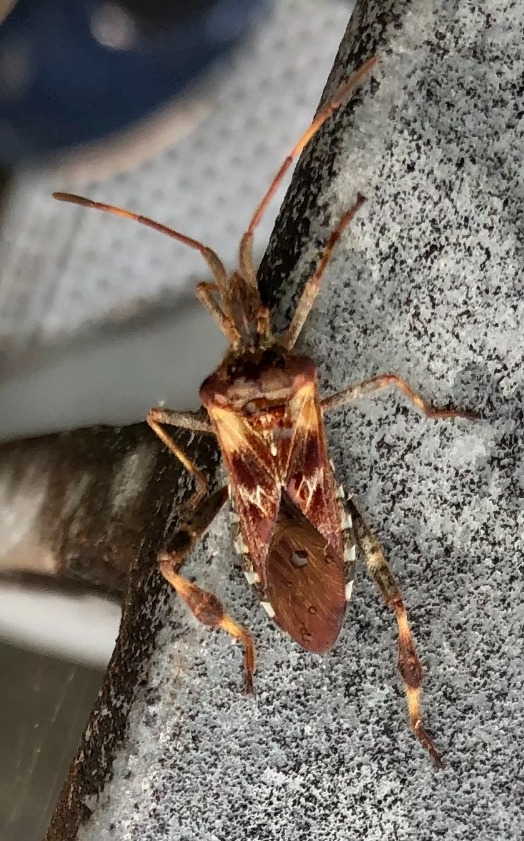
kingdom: Animalia
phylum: Arthropoda
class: Insecta
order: Hemiptera
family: Coreidae
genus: Leptoglossus
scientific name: Leptoglossus occidentalis
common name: Amerikansk fyrretæge
